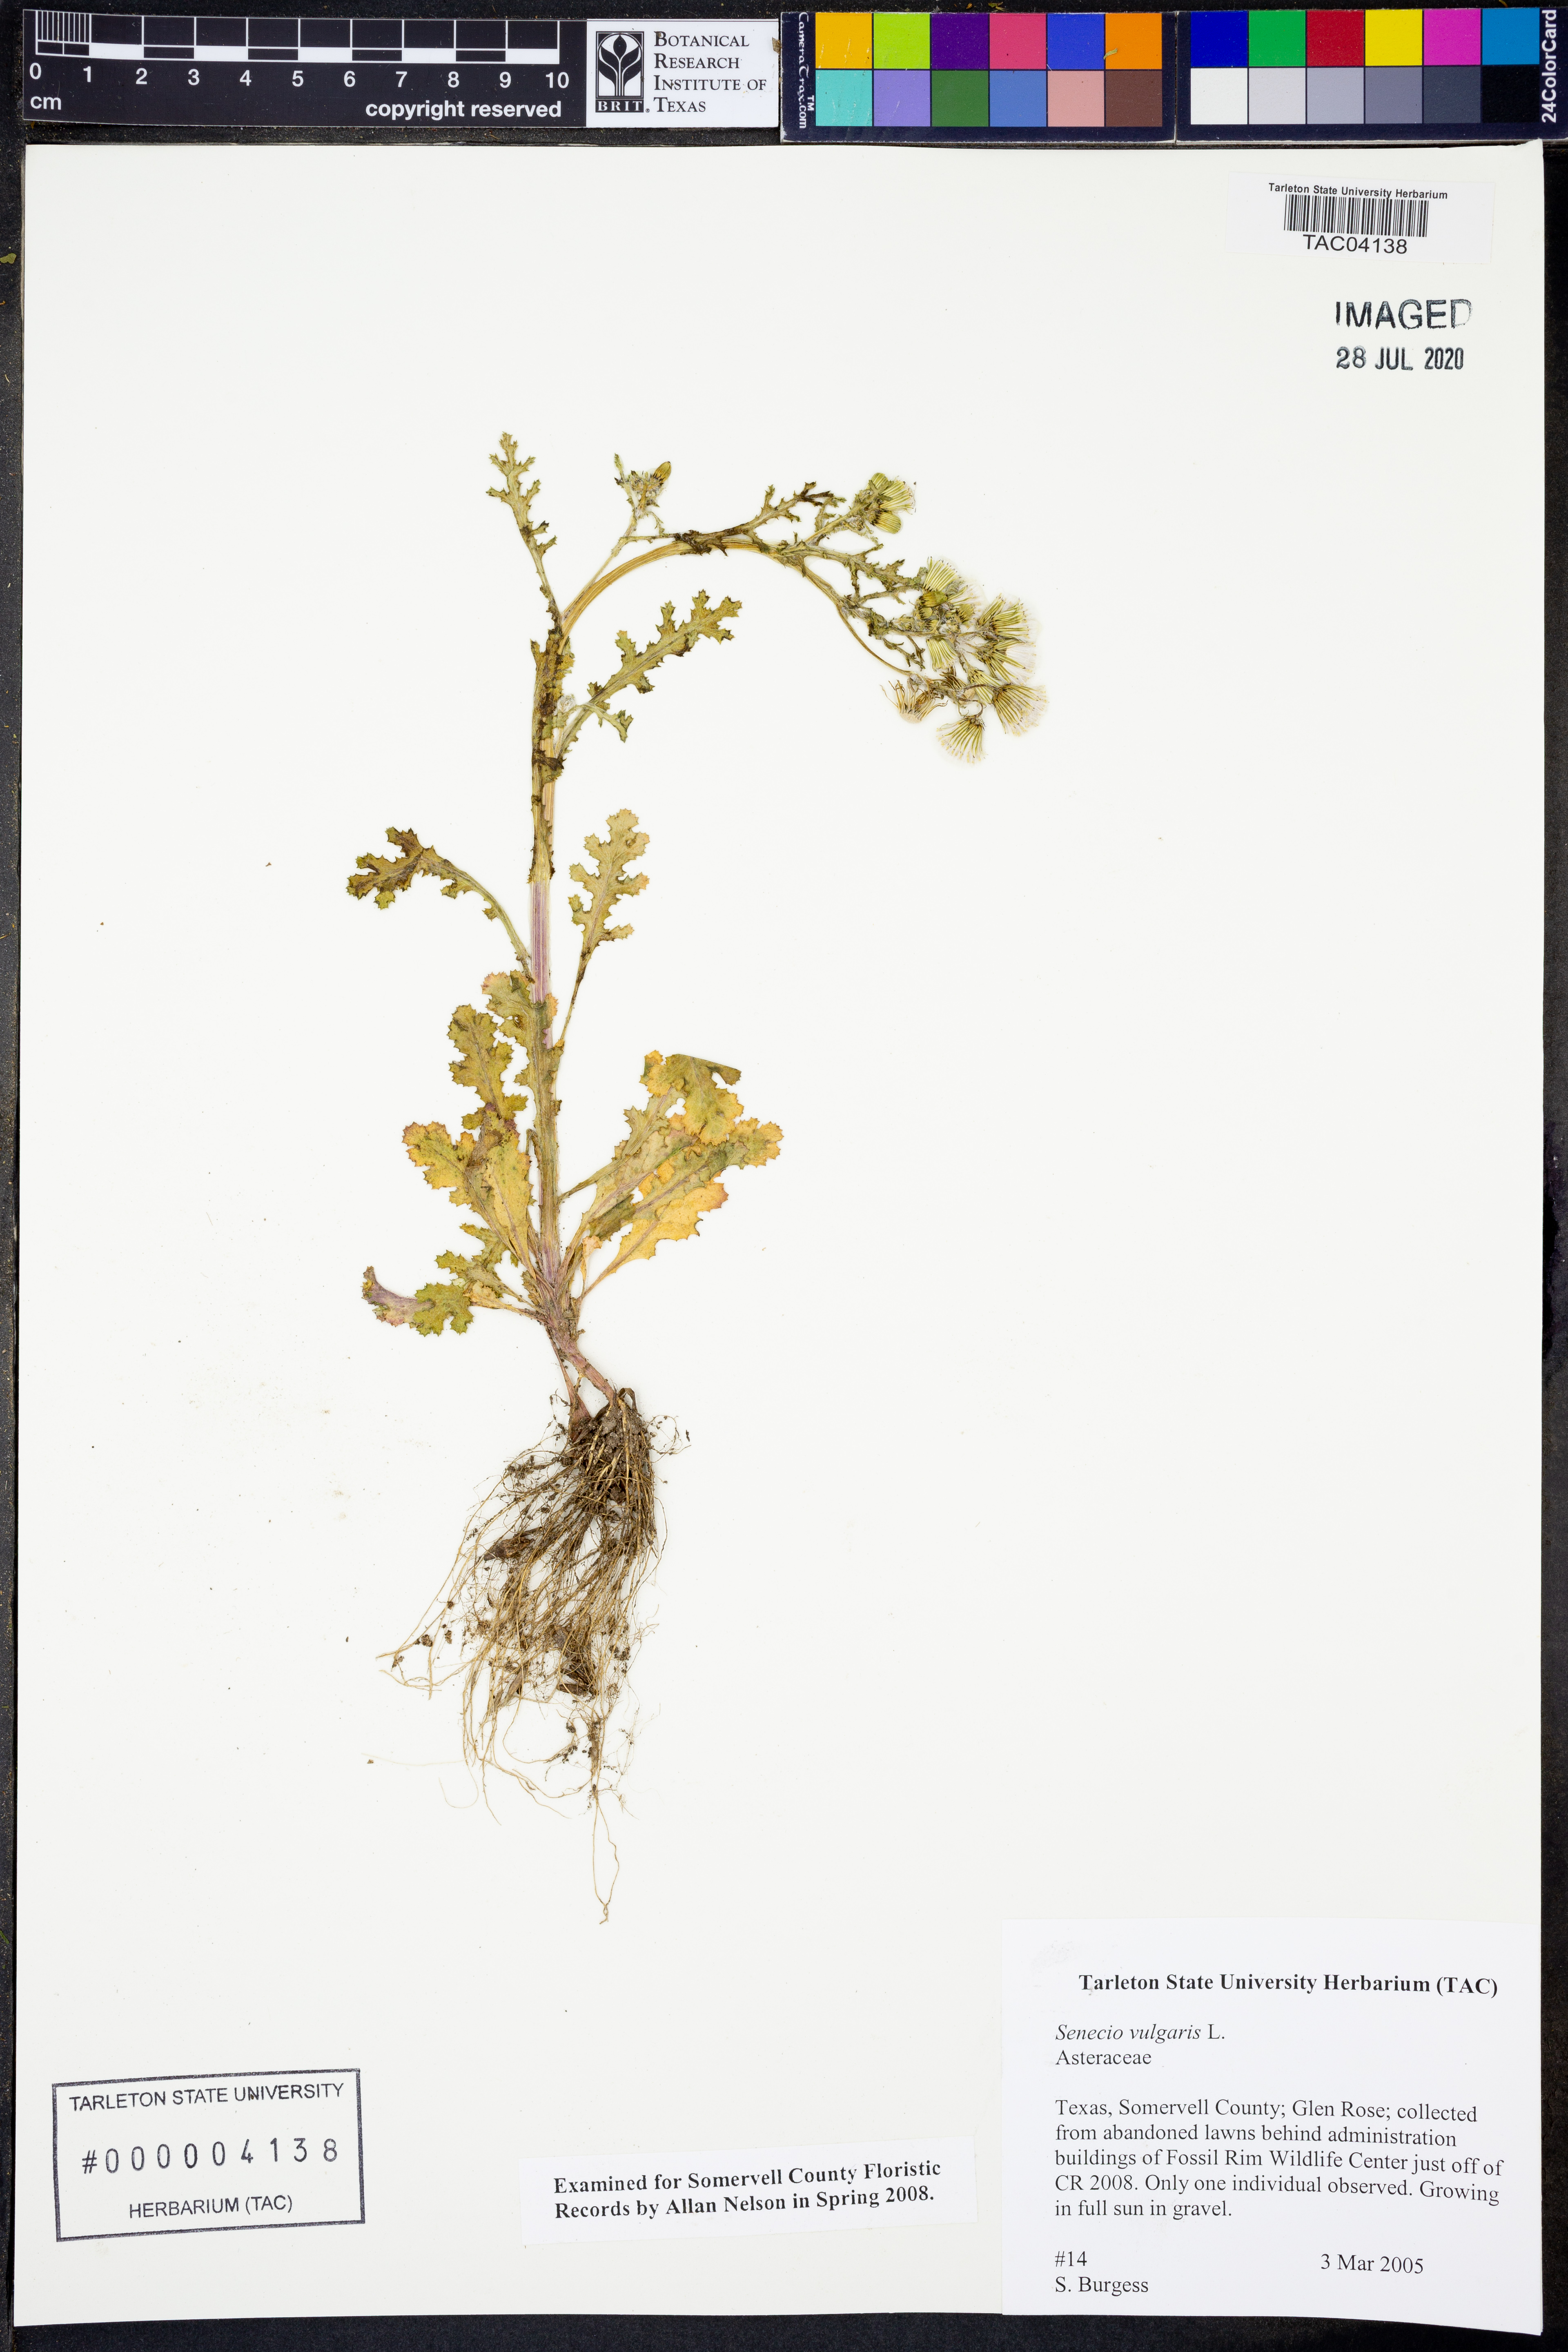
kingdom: Plantae
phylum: Tracheophyta
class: Magnoliopsida
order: Asterales
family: Asteraceae
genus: Senecio
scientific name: Senecio vulgaris
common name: Old-man-in-the-spring
